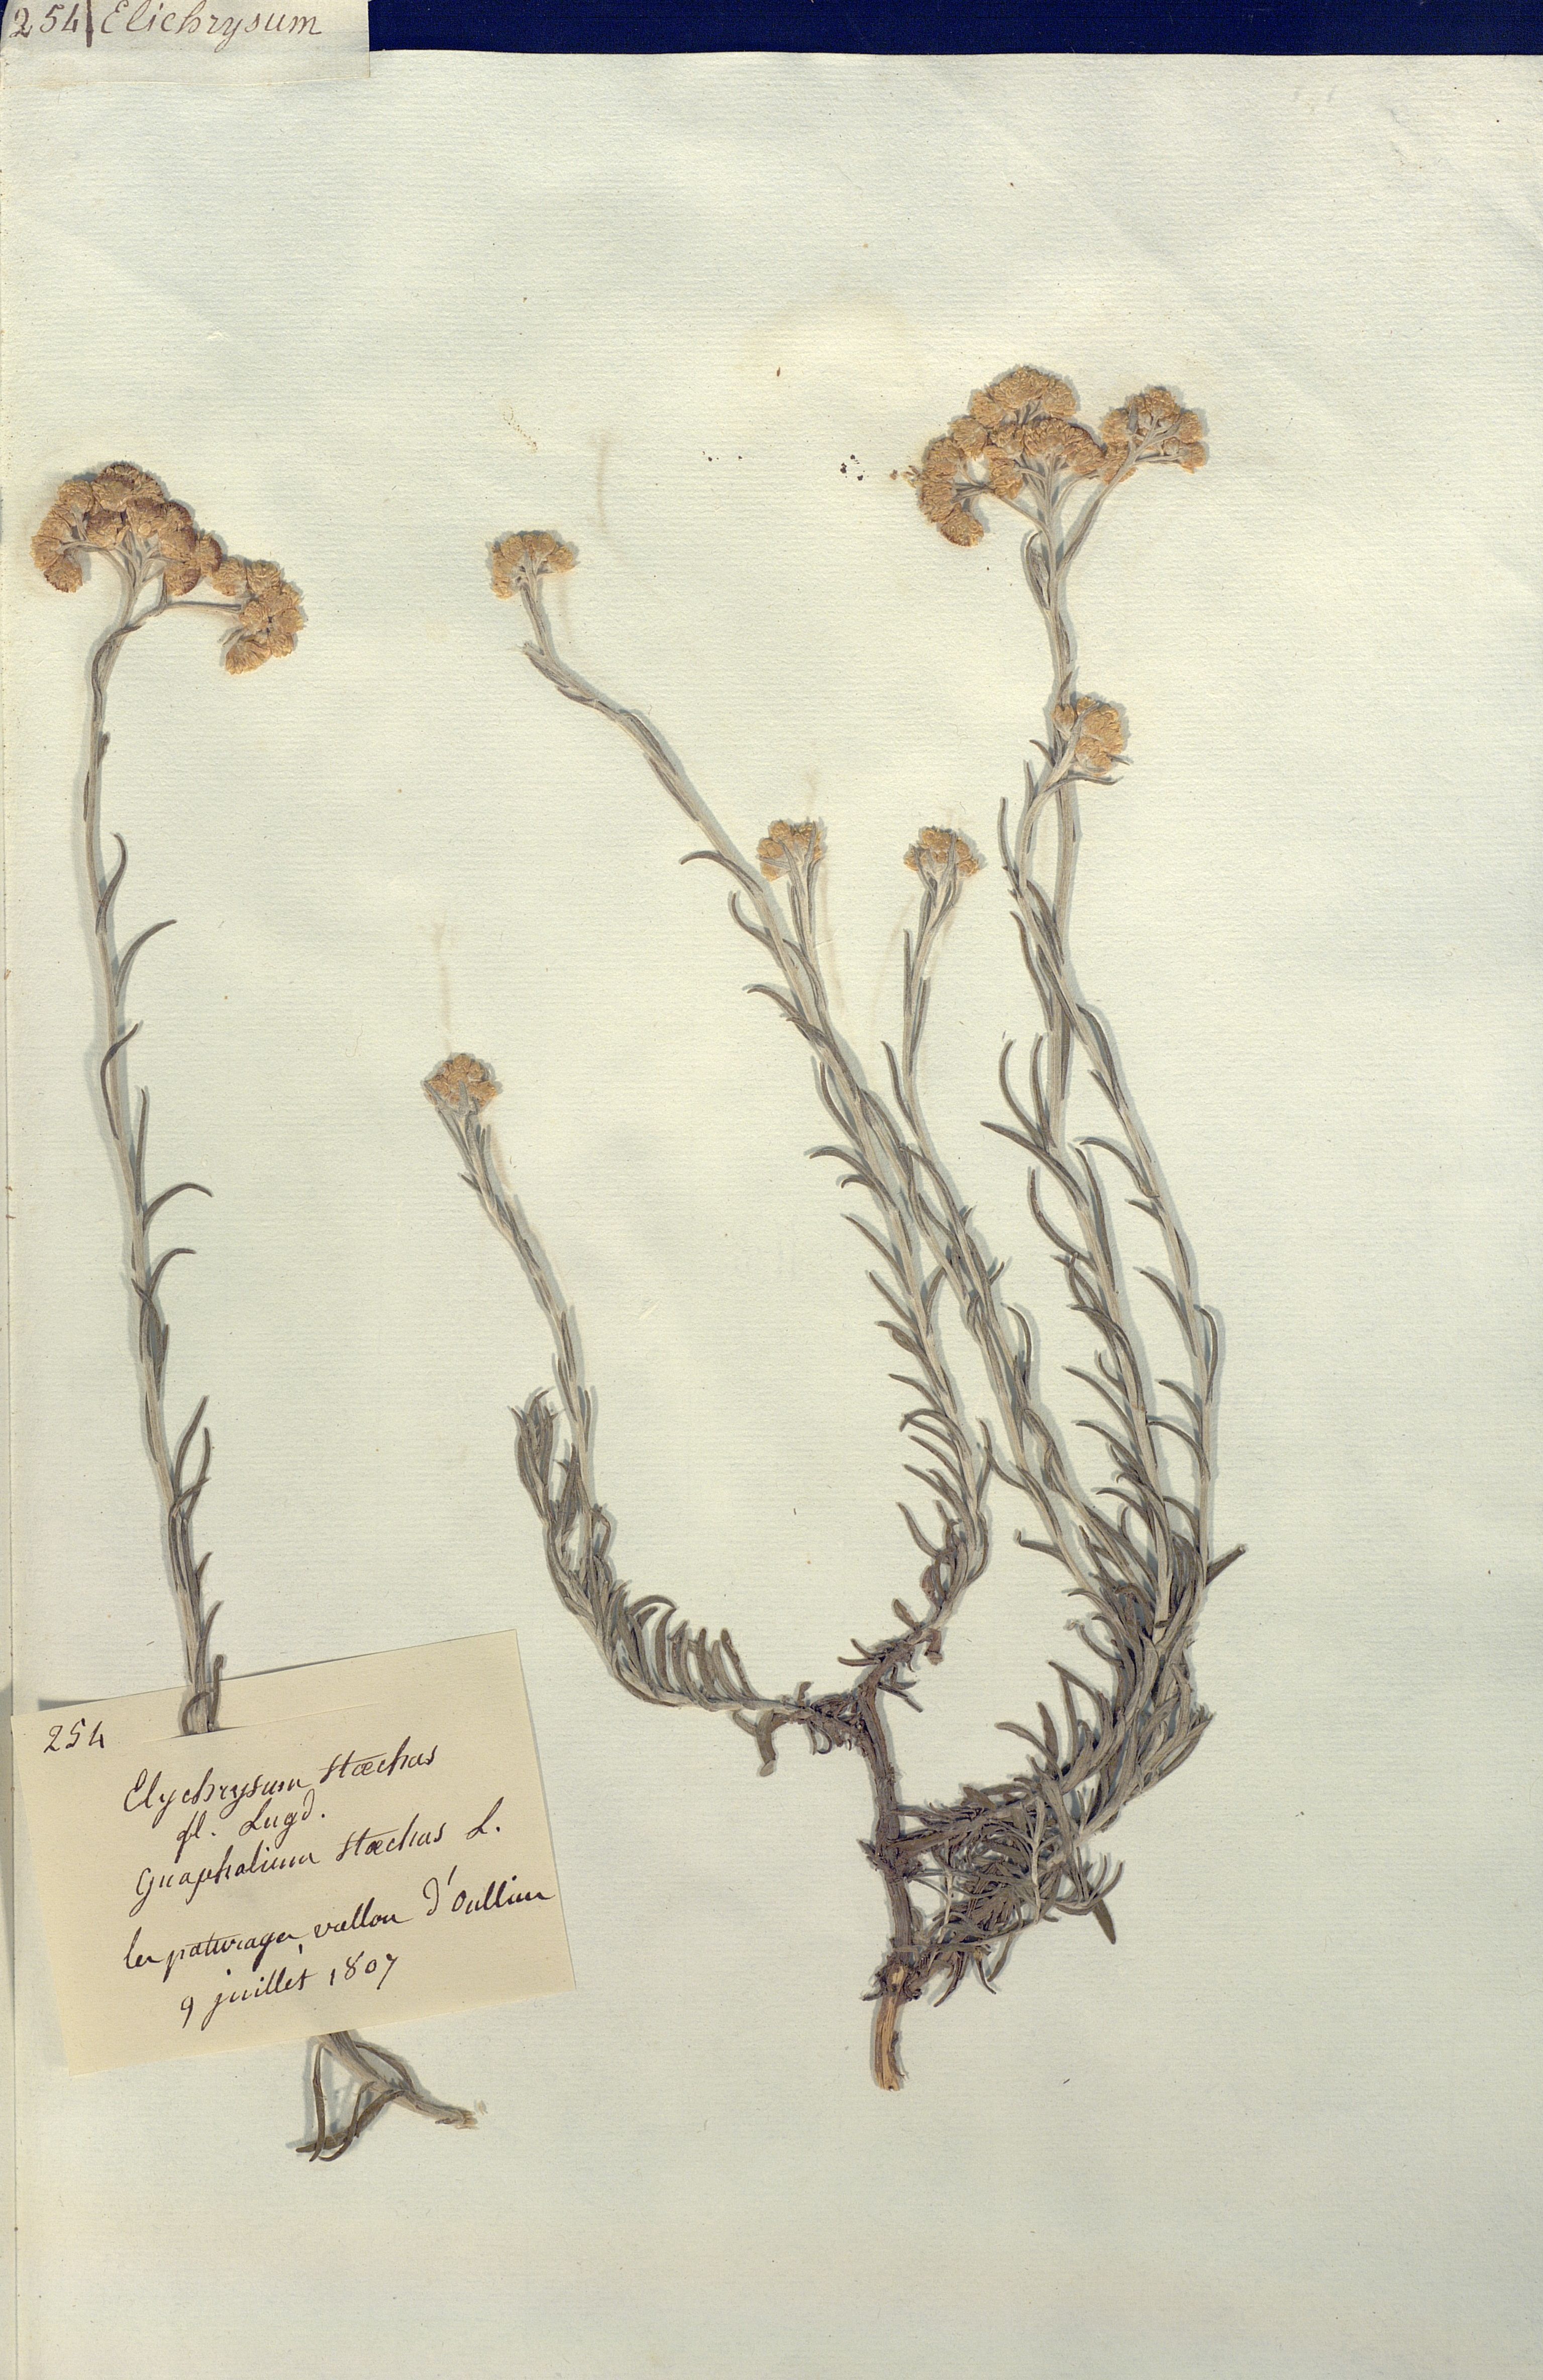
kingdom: Plantae
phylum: Tracheophyta
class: Magnoliopsida
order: Asterales
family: Asteraceae
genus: Helichrysum
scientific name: Helichrysum stoechas
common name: Goldilocks
